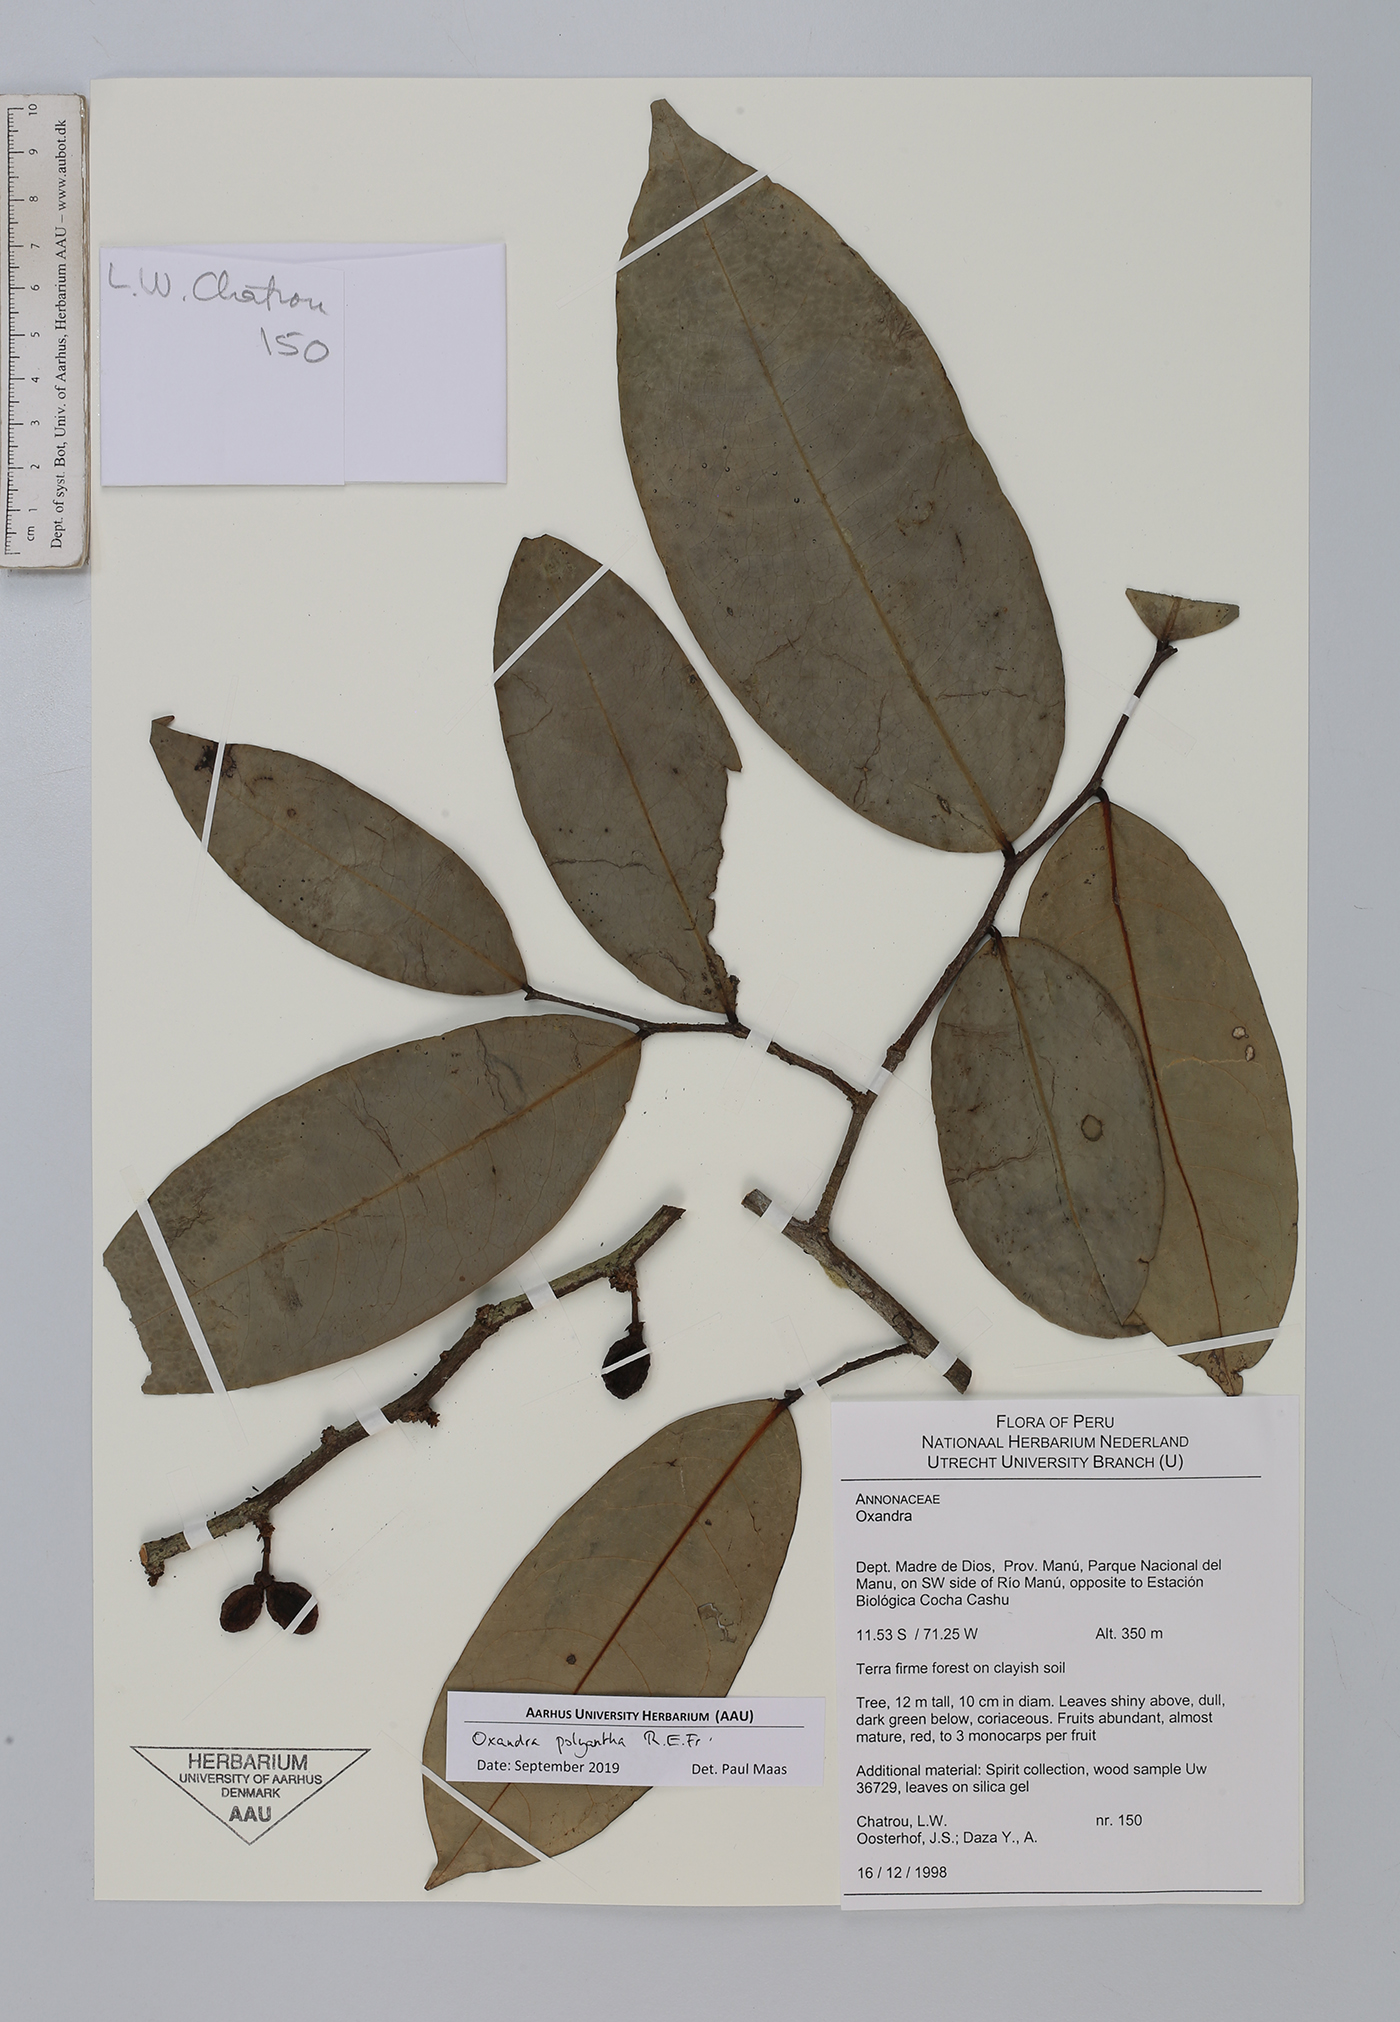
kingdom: Plantae
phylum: Tracheophyta
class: Magnoliopsida
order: Magnoliales
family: Annonaceae
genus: Oxandra
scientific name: Oxandra polyantha
